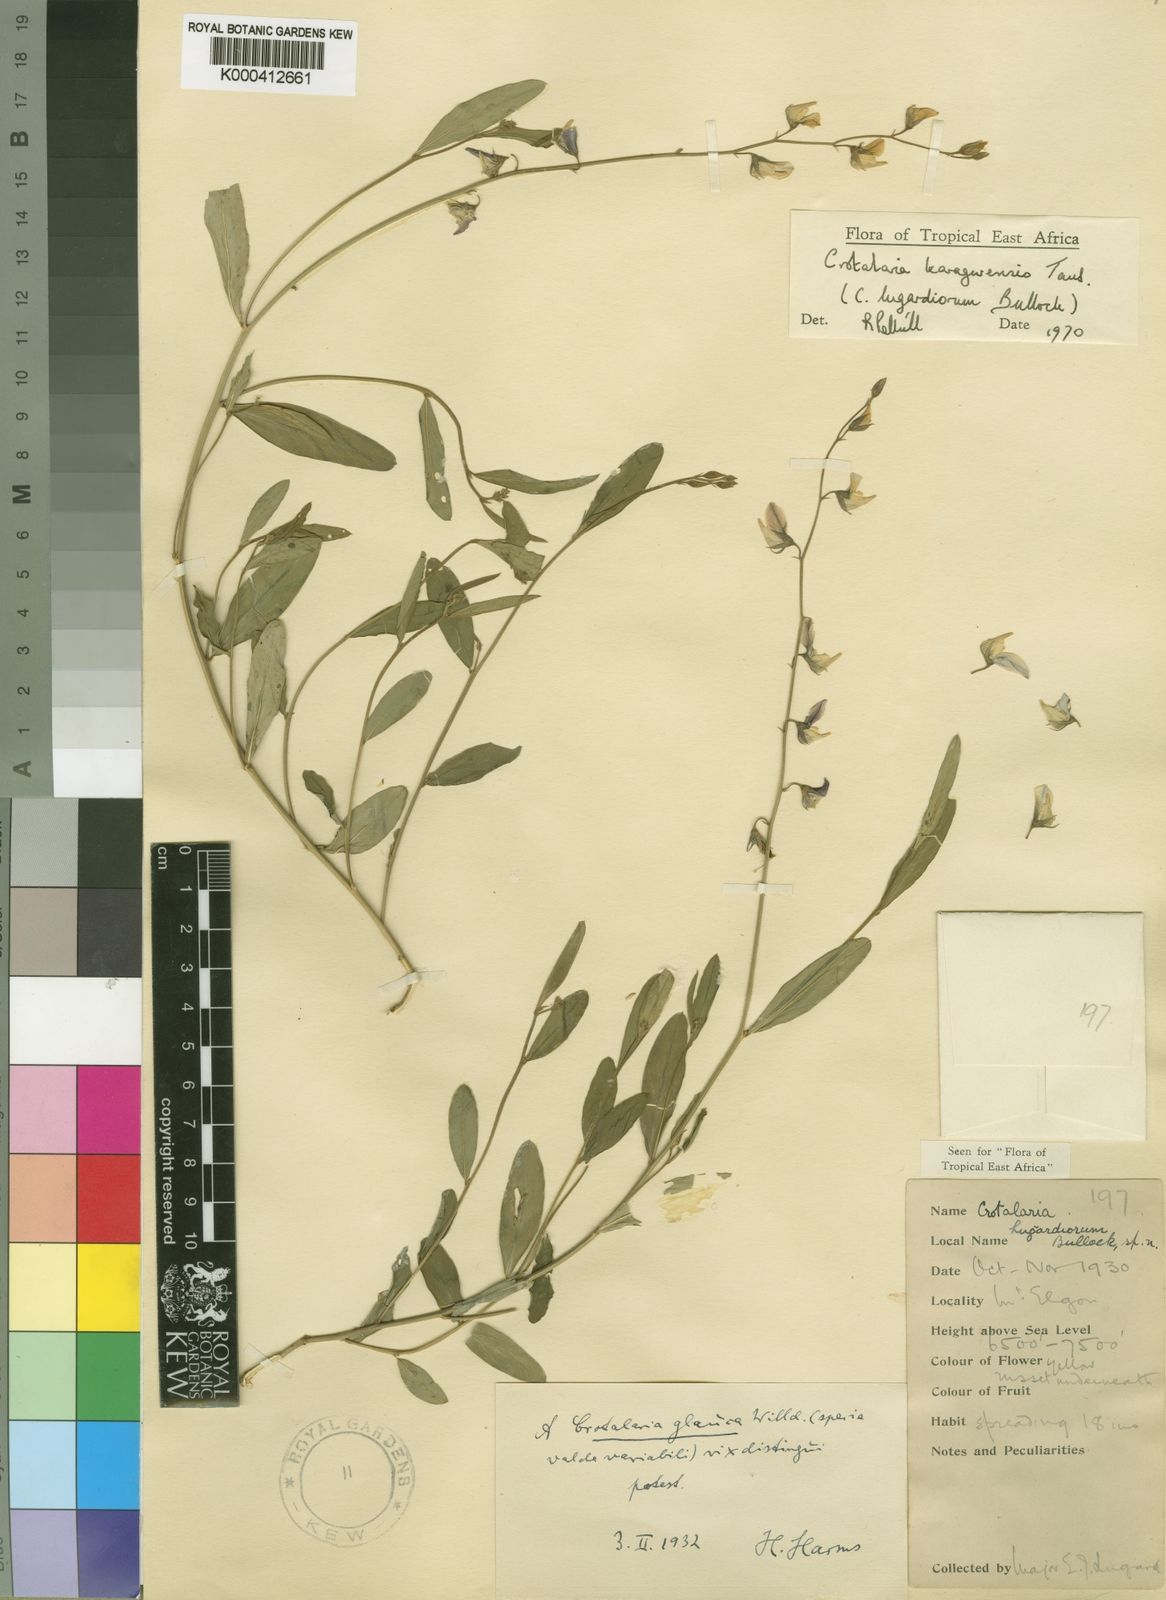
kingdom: Plantae
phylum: Tracheophyta
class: Magnoliopsida
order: Fabales
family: Fabaceae
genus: Crotalaria
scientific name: Crotalaria karagwensis
